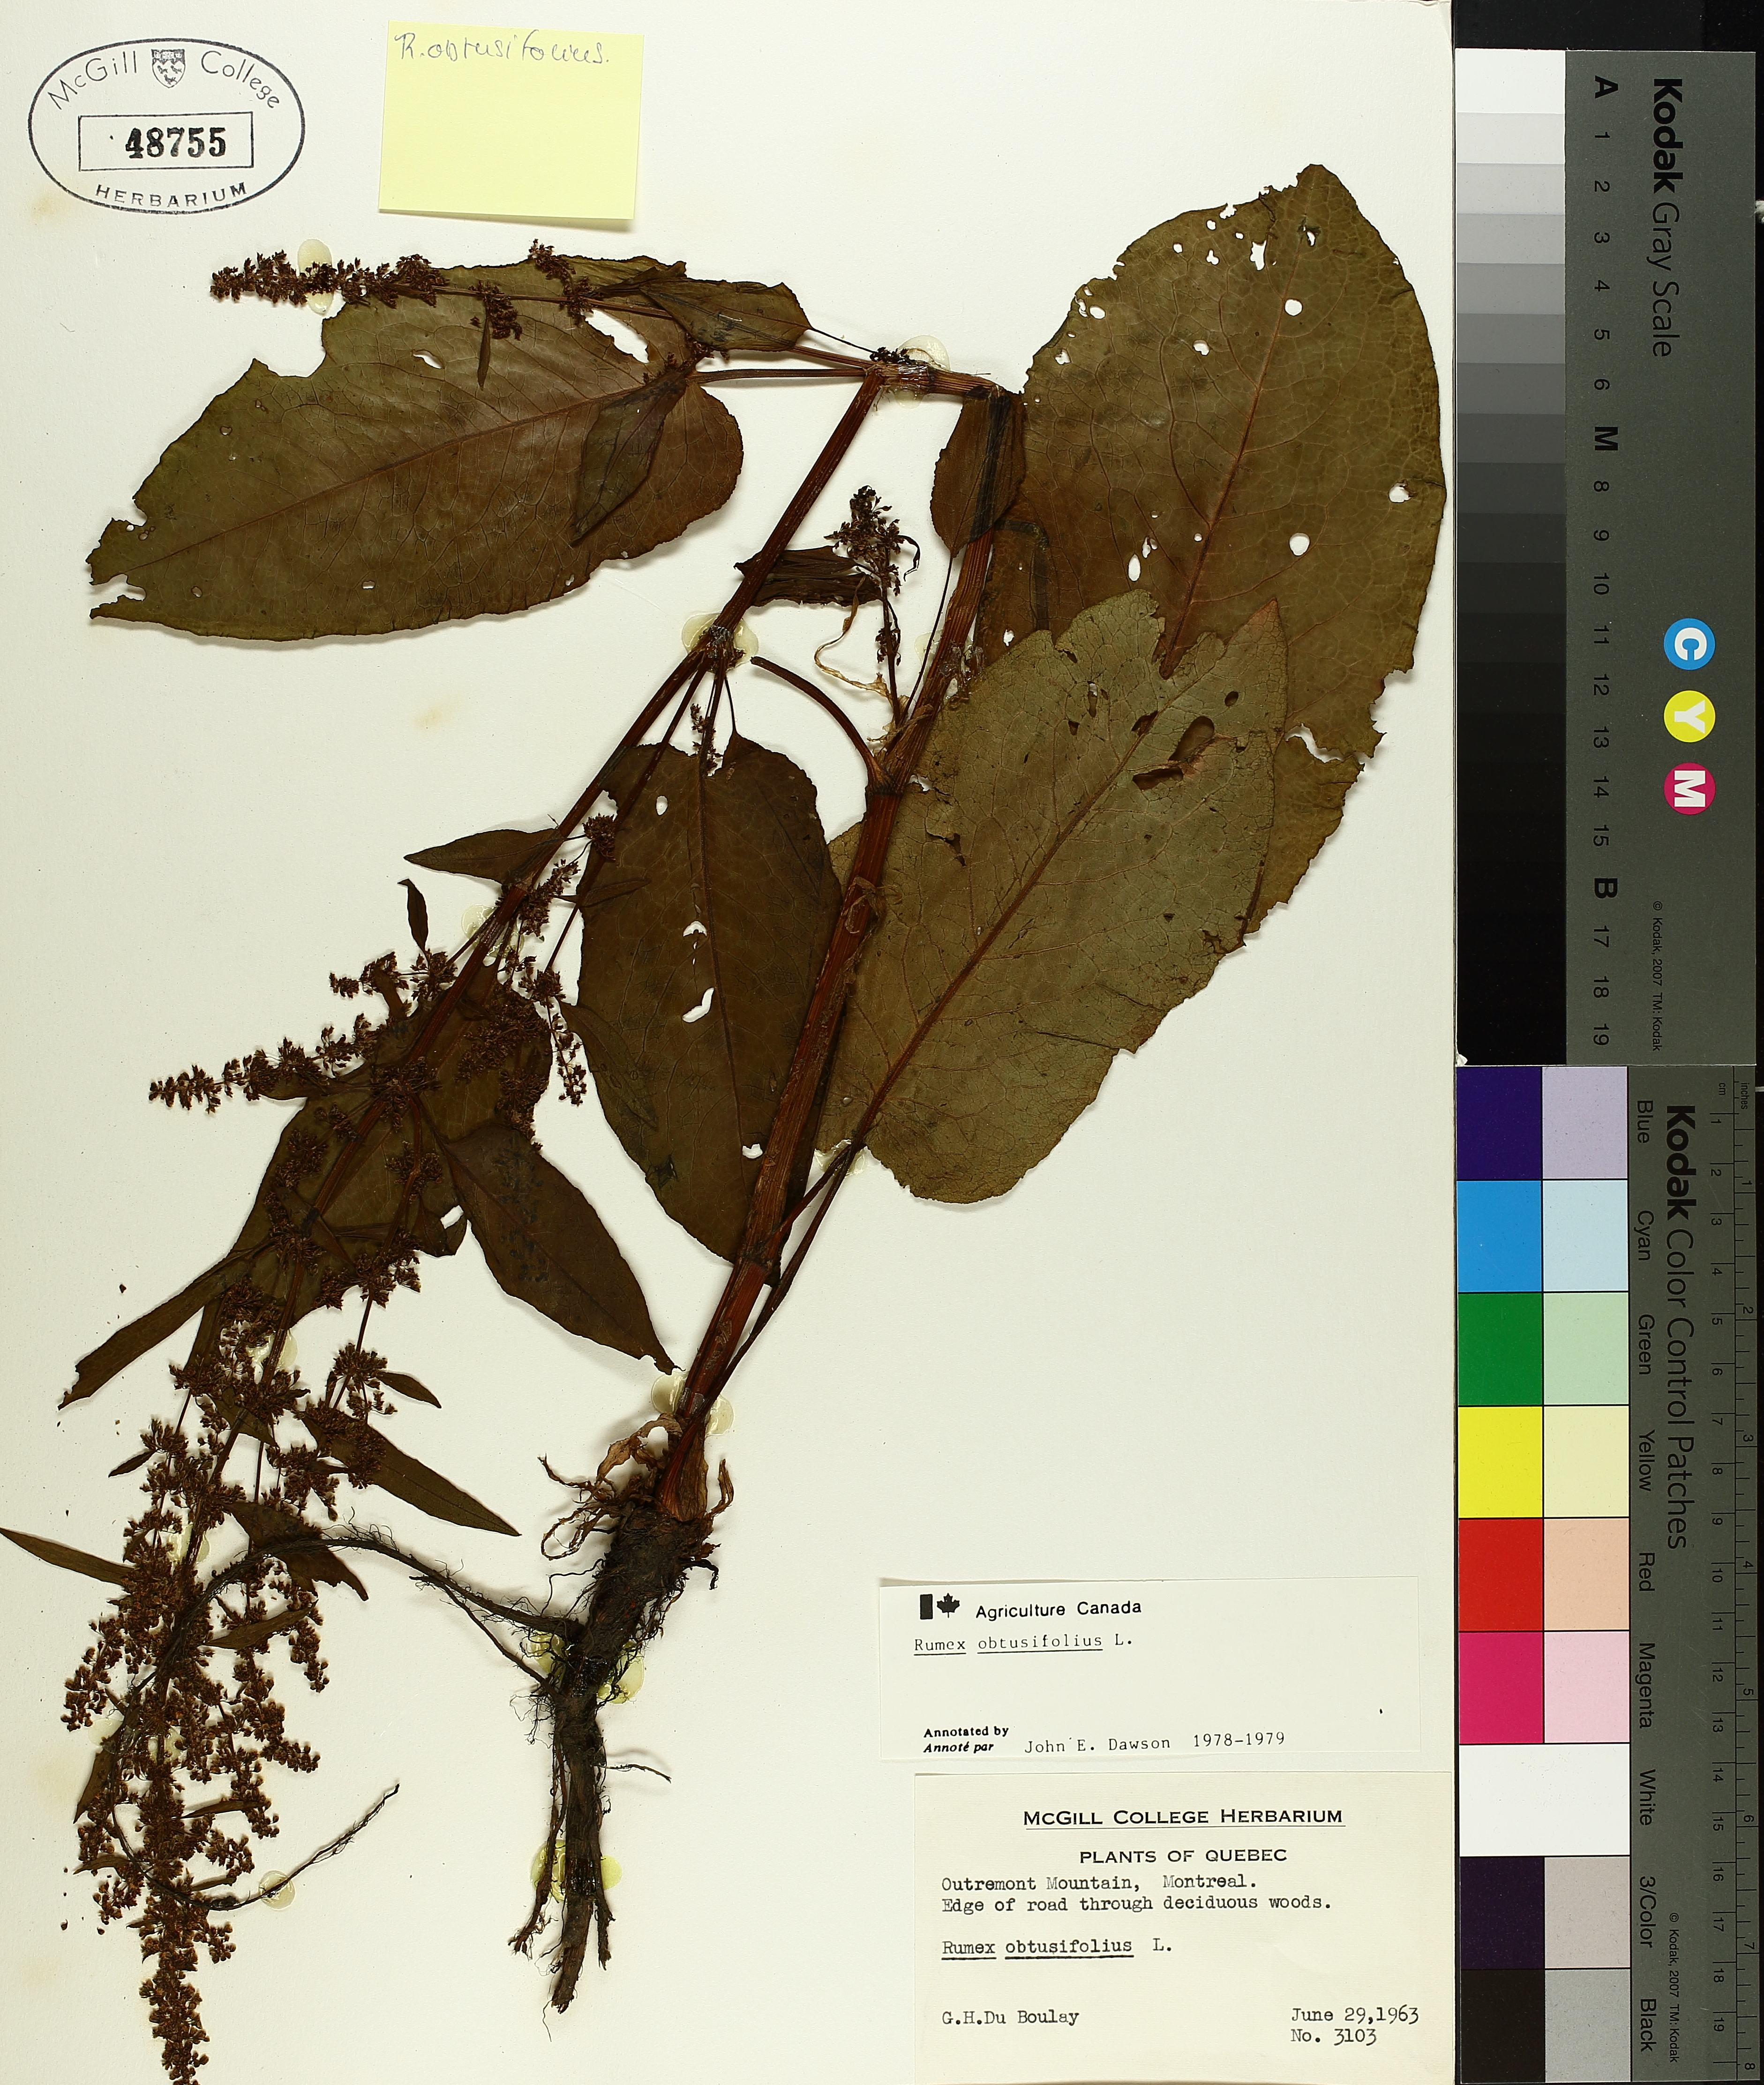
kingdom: Plantae
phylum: Tracheophyta
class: Magnoliopsida
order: Caryophyllales
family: Polygonaceae
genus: Rumex
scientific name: Rumex obtusifolius
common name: Bitter dock
